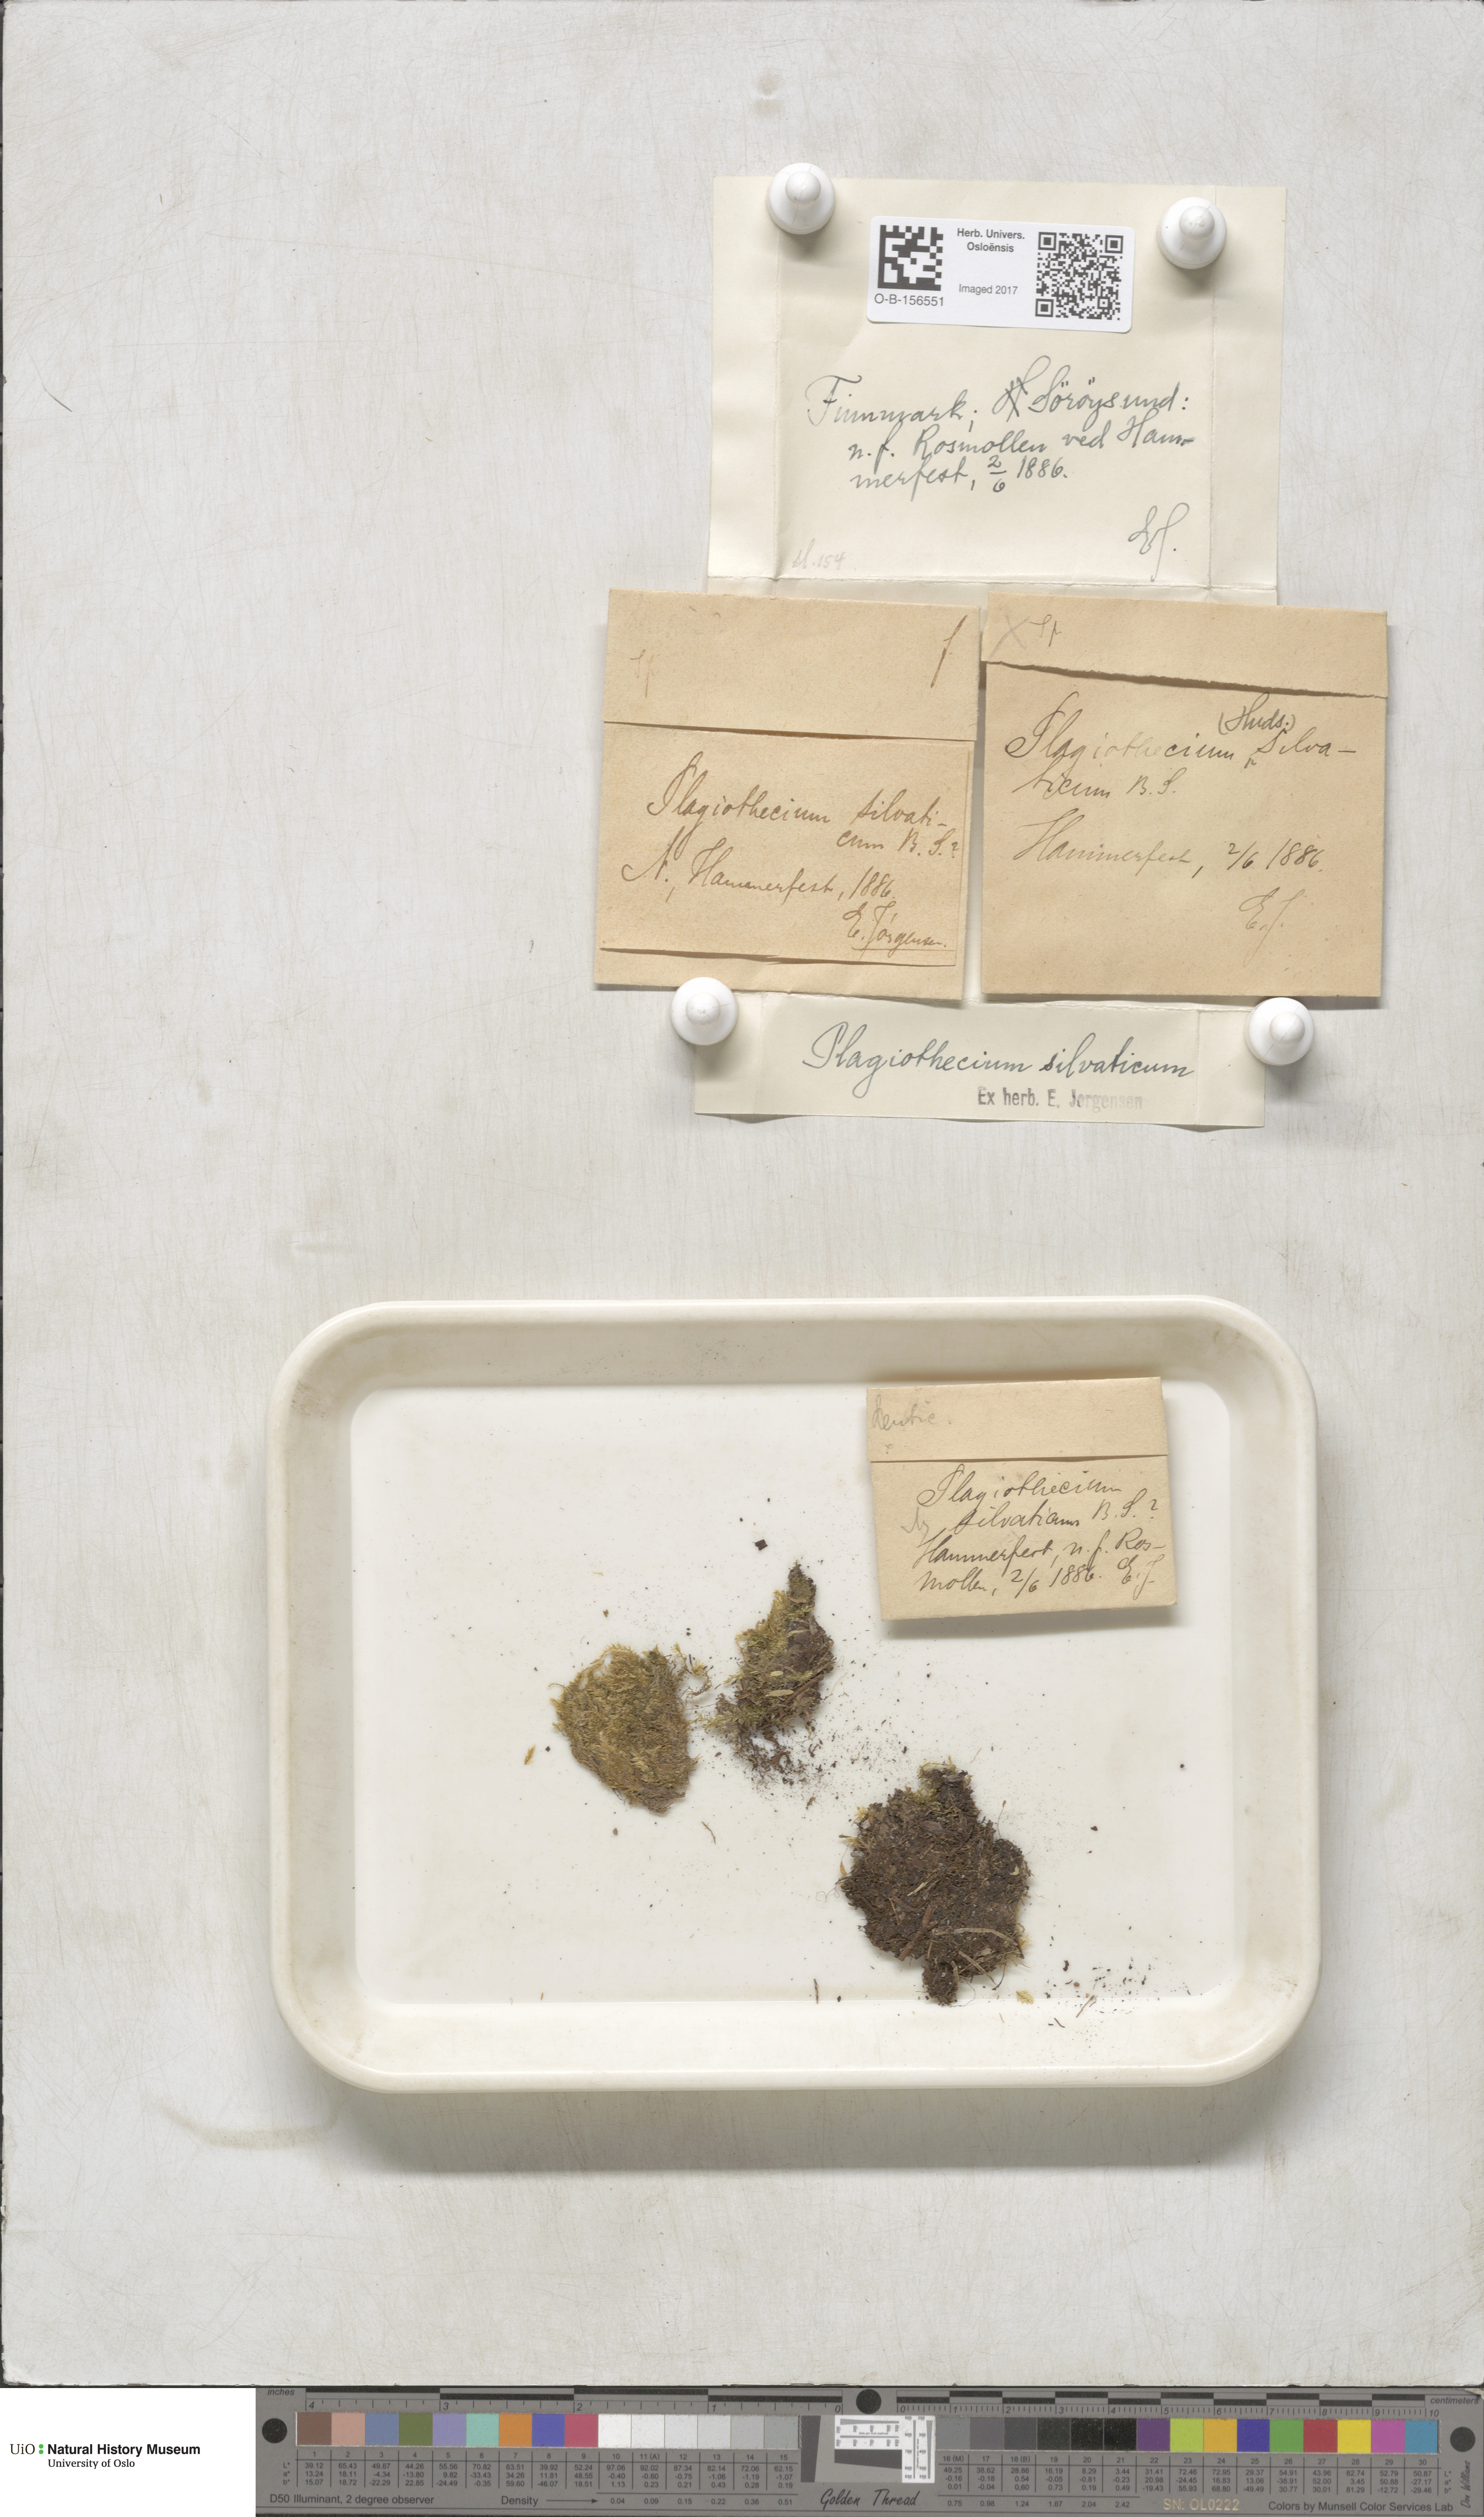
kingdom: Plantae
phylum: Bryophyta
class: Bryopsida
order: Hypnales
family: Plagiotheciaceae
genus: Plagiothecium
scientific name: Plagiothecium nemorale
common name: Woodsy silk-moss
